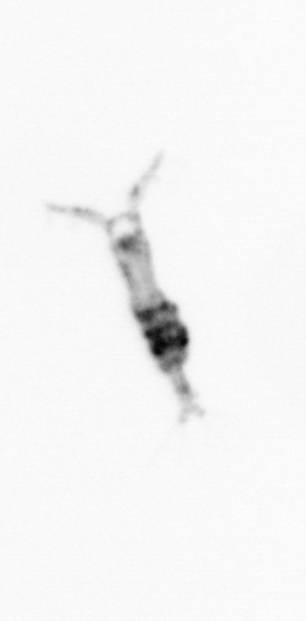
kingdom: Animalia
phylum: Arthropoda
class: Copepoda
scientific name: Copepoda
